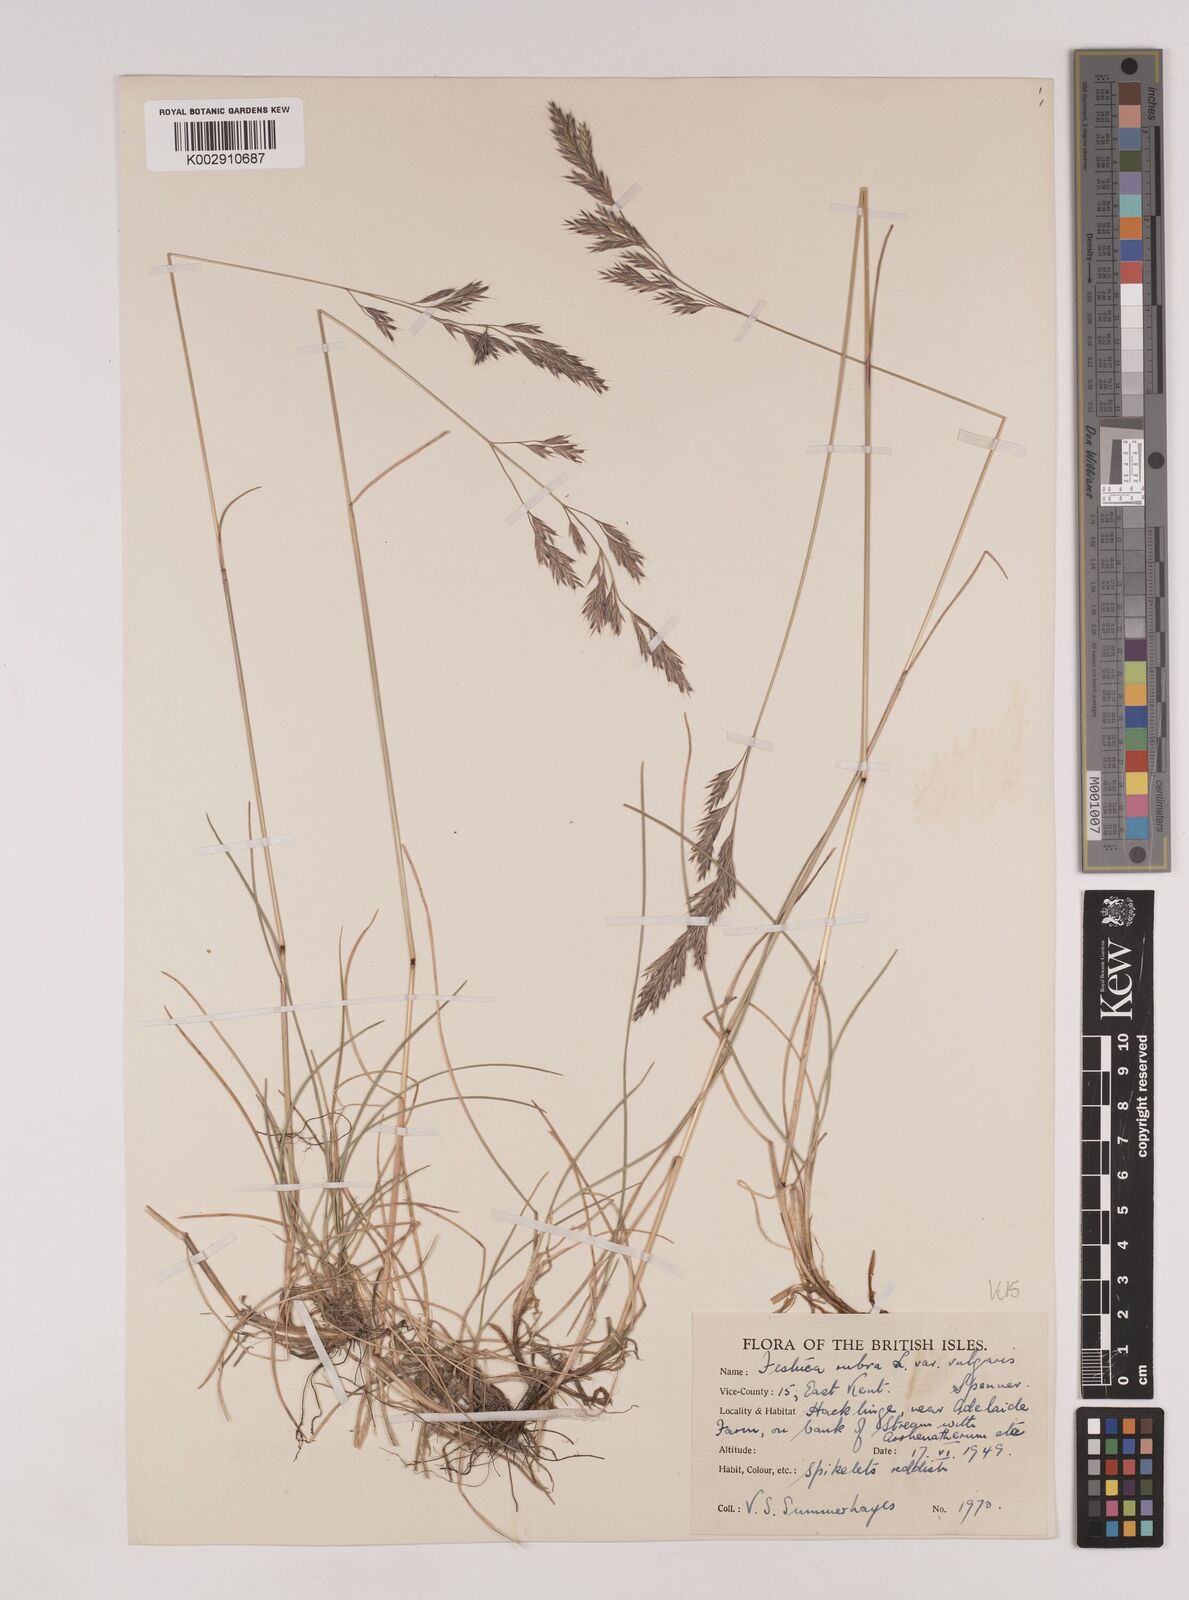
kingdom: Plantae
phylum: Tracheophyta
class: Liliopsida
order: Poales
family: Poaceae
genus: Festuca
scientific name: Festuca rubra
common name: Red fescue
